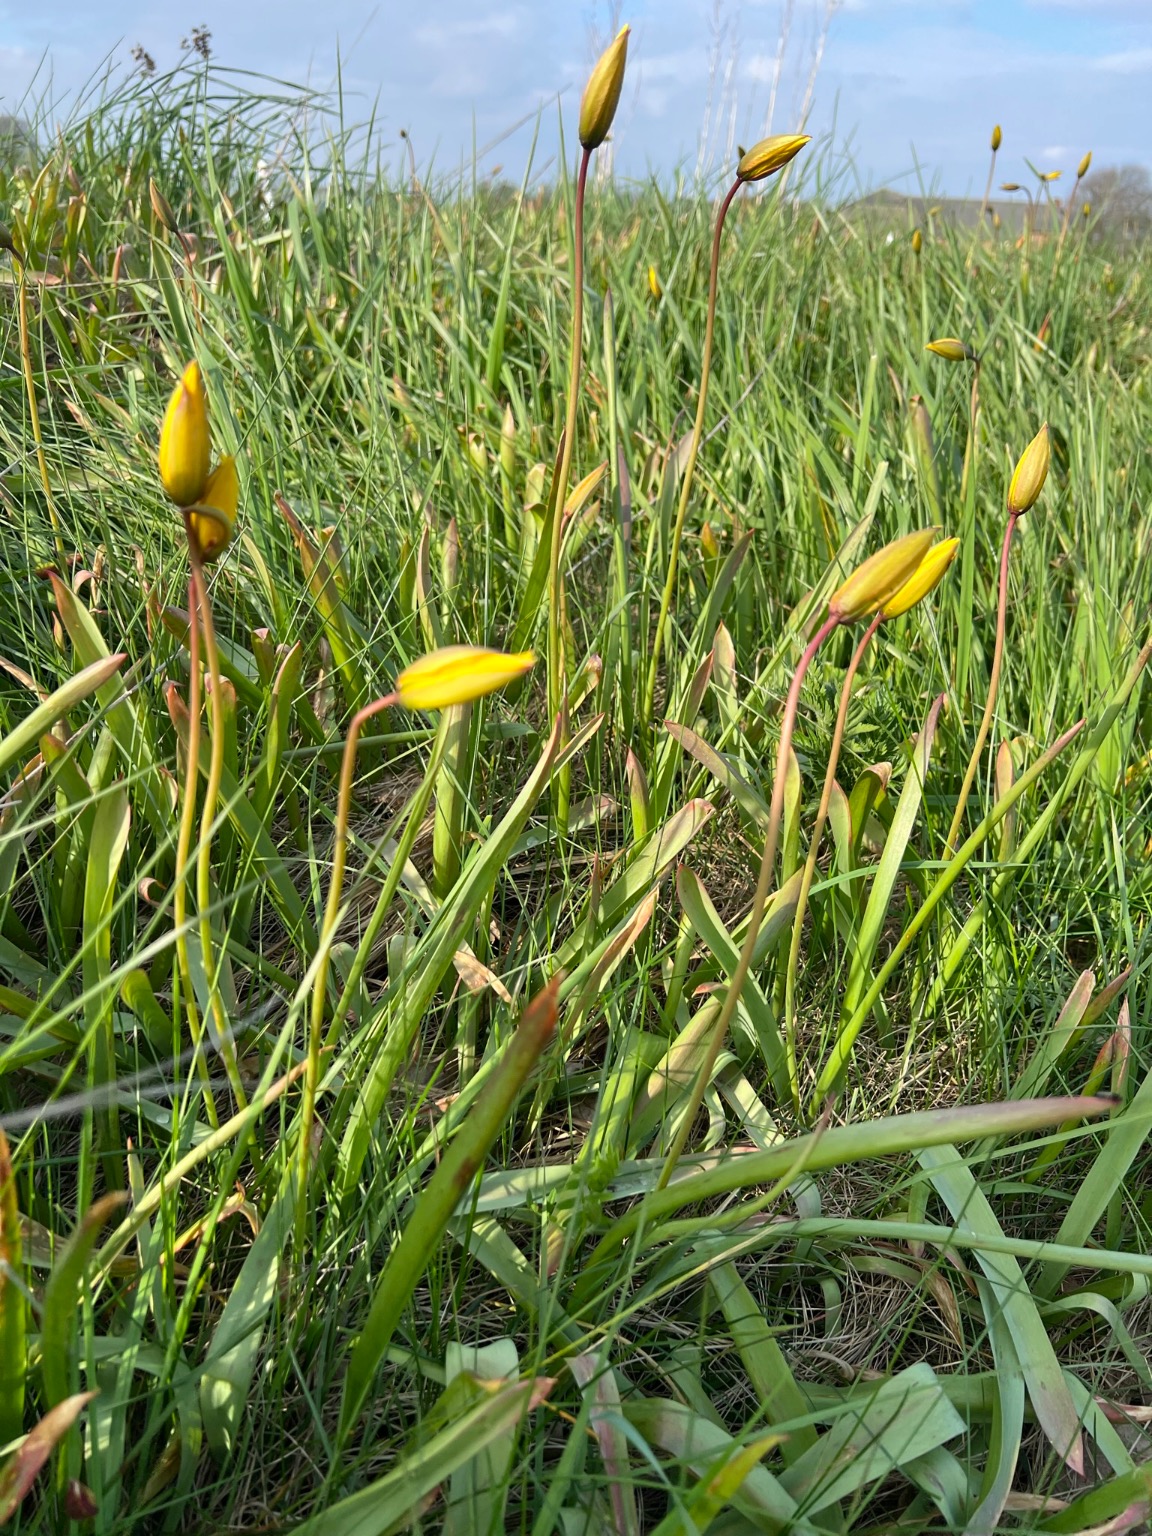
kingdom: Plantae
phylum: Tracheophyta
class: Liliopsida
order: Liliales
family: Liliaceae
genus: Tulipa
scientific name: Tulipa sylvestris
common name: Vild tulipan
